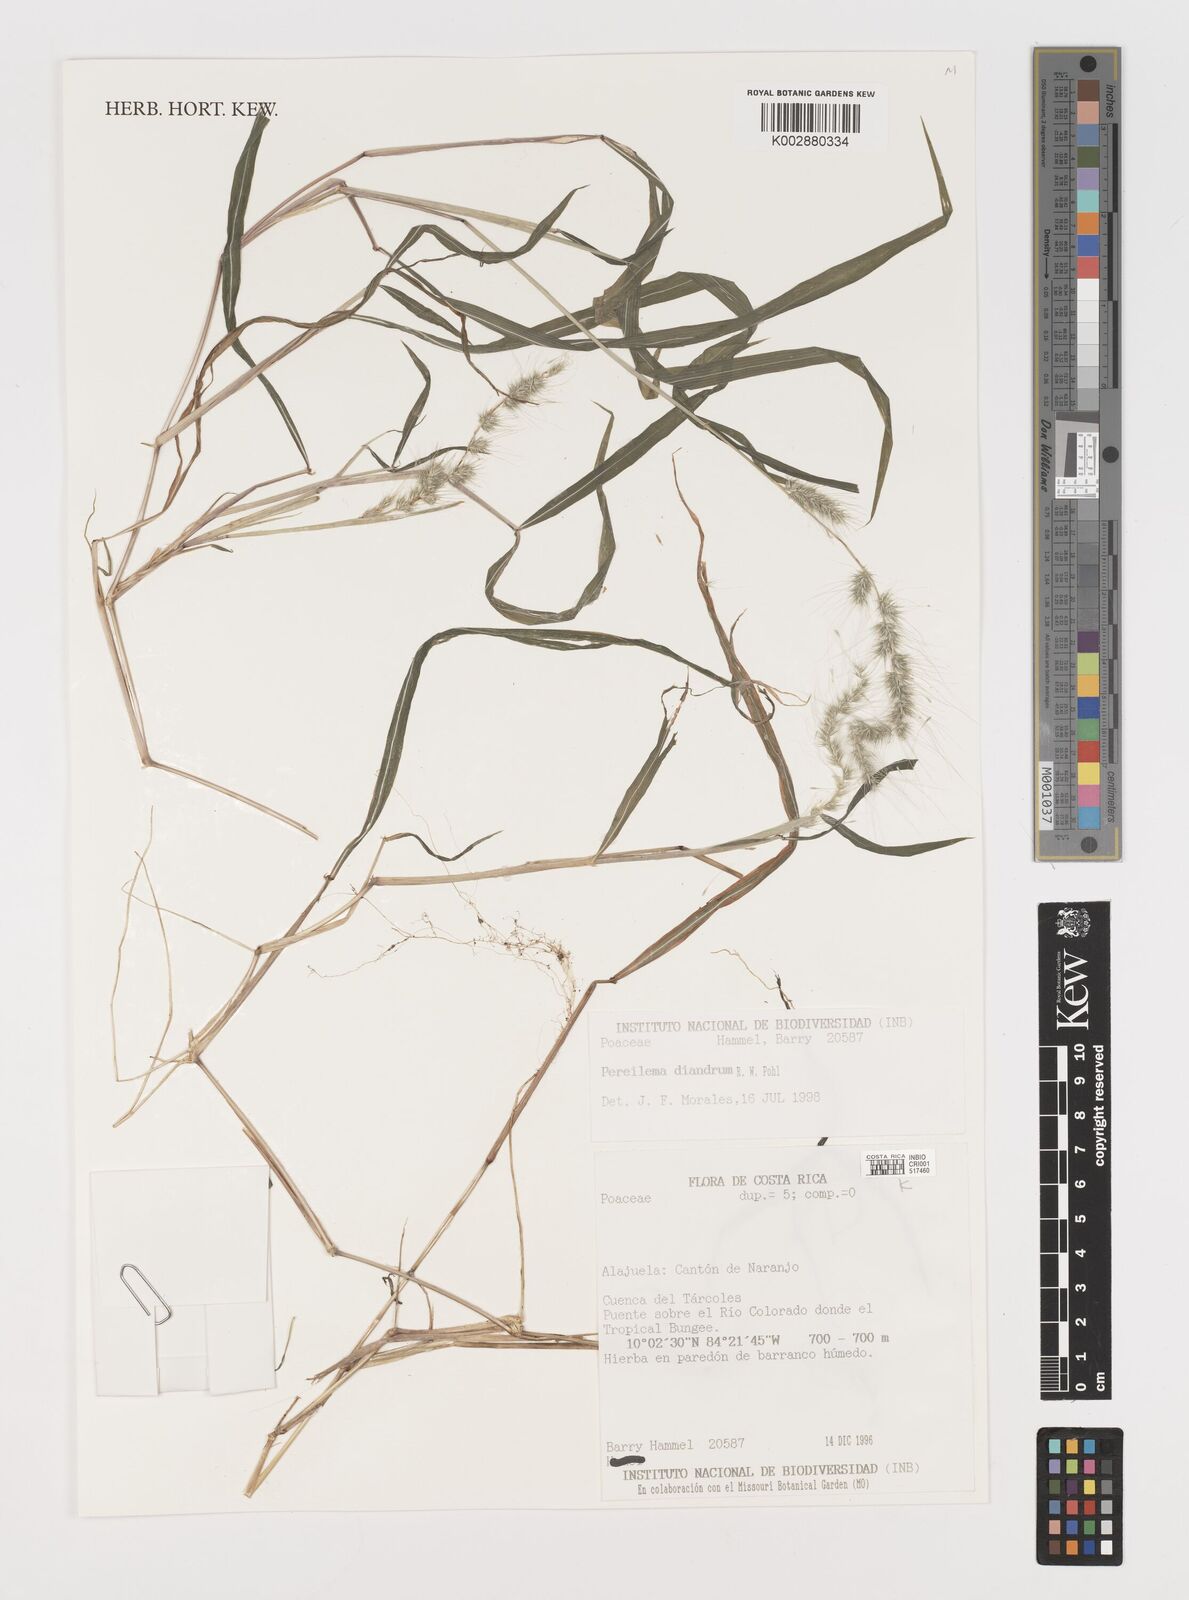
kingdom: Plantae
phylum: Tracheophyta
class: Liliopsida
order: Poales
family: Poaceae
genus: Muhlenbergia
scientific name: Muhlenbergia diandra
